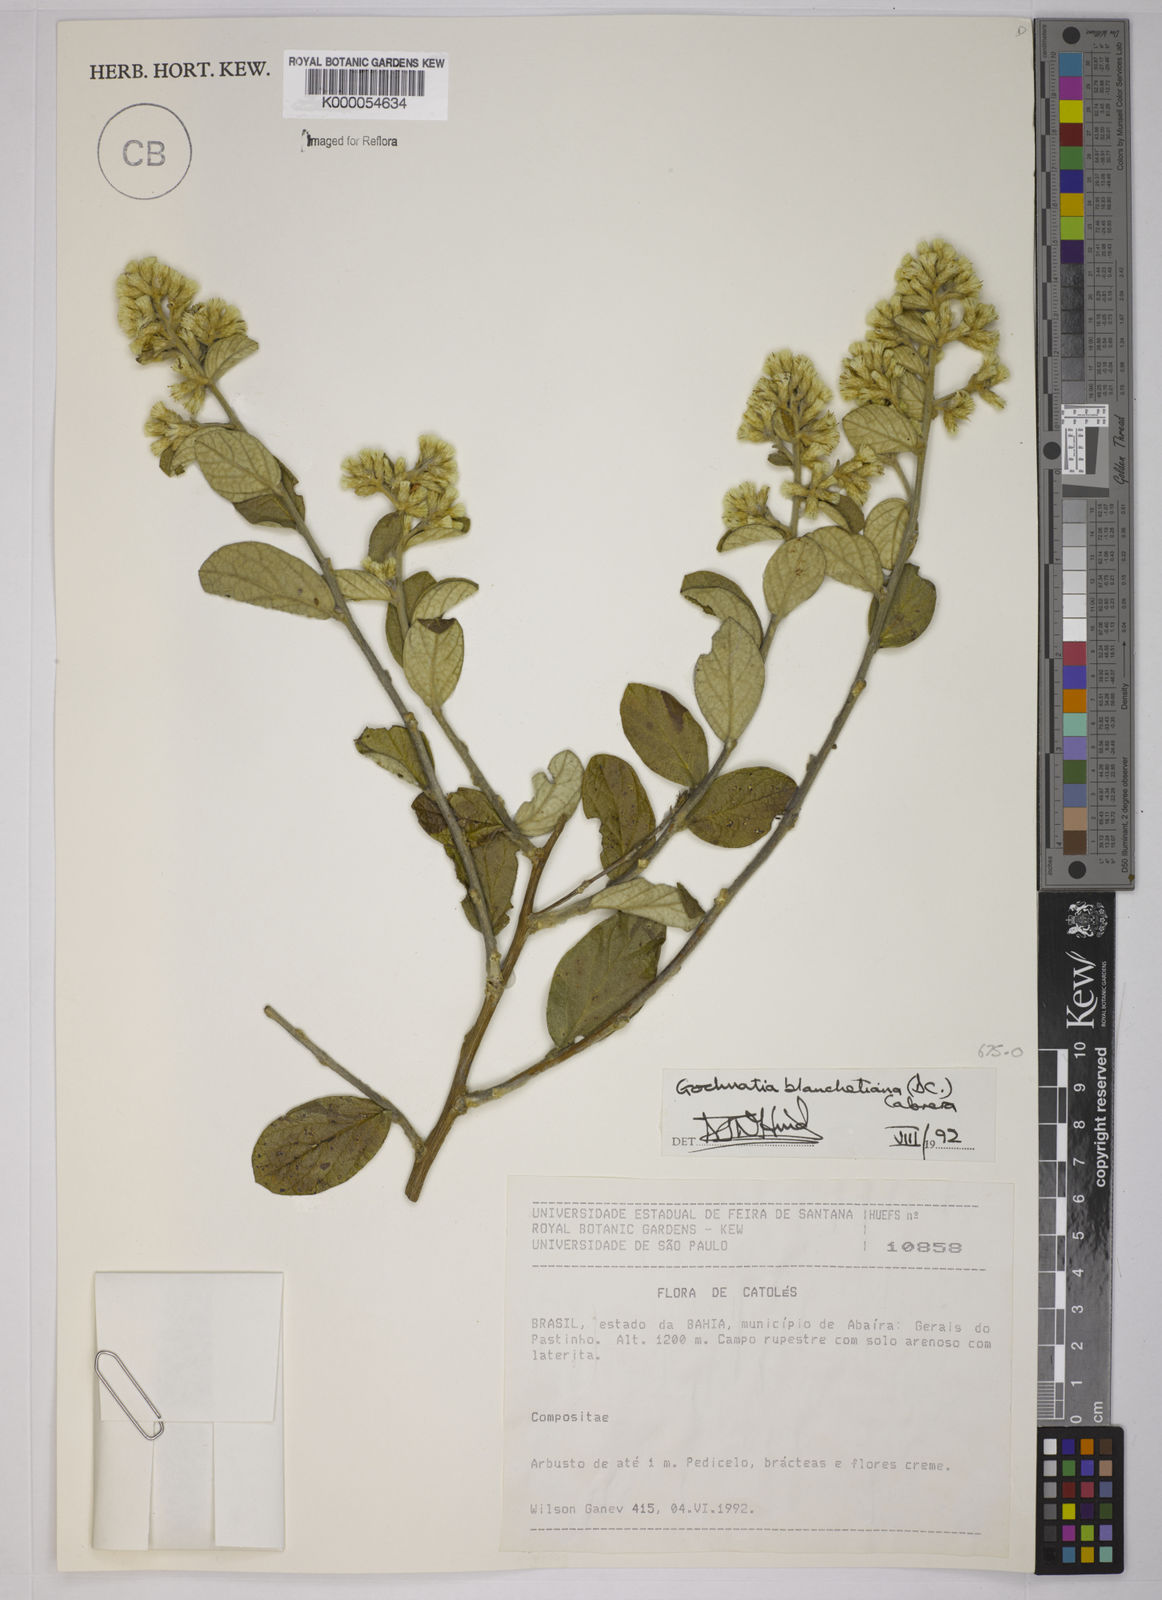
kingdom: Plantae
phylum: Tracheophyta
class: Magnoliopsida
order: Asterales
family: Asteraceae
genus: Moquiniastrum
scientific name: Moquiniastrum blanchetianum
